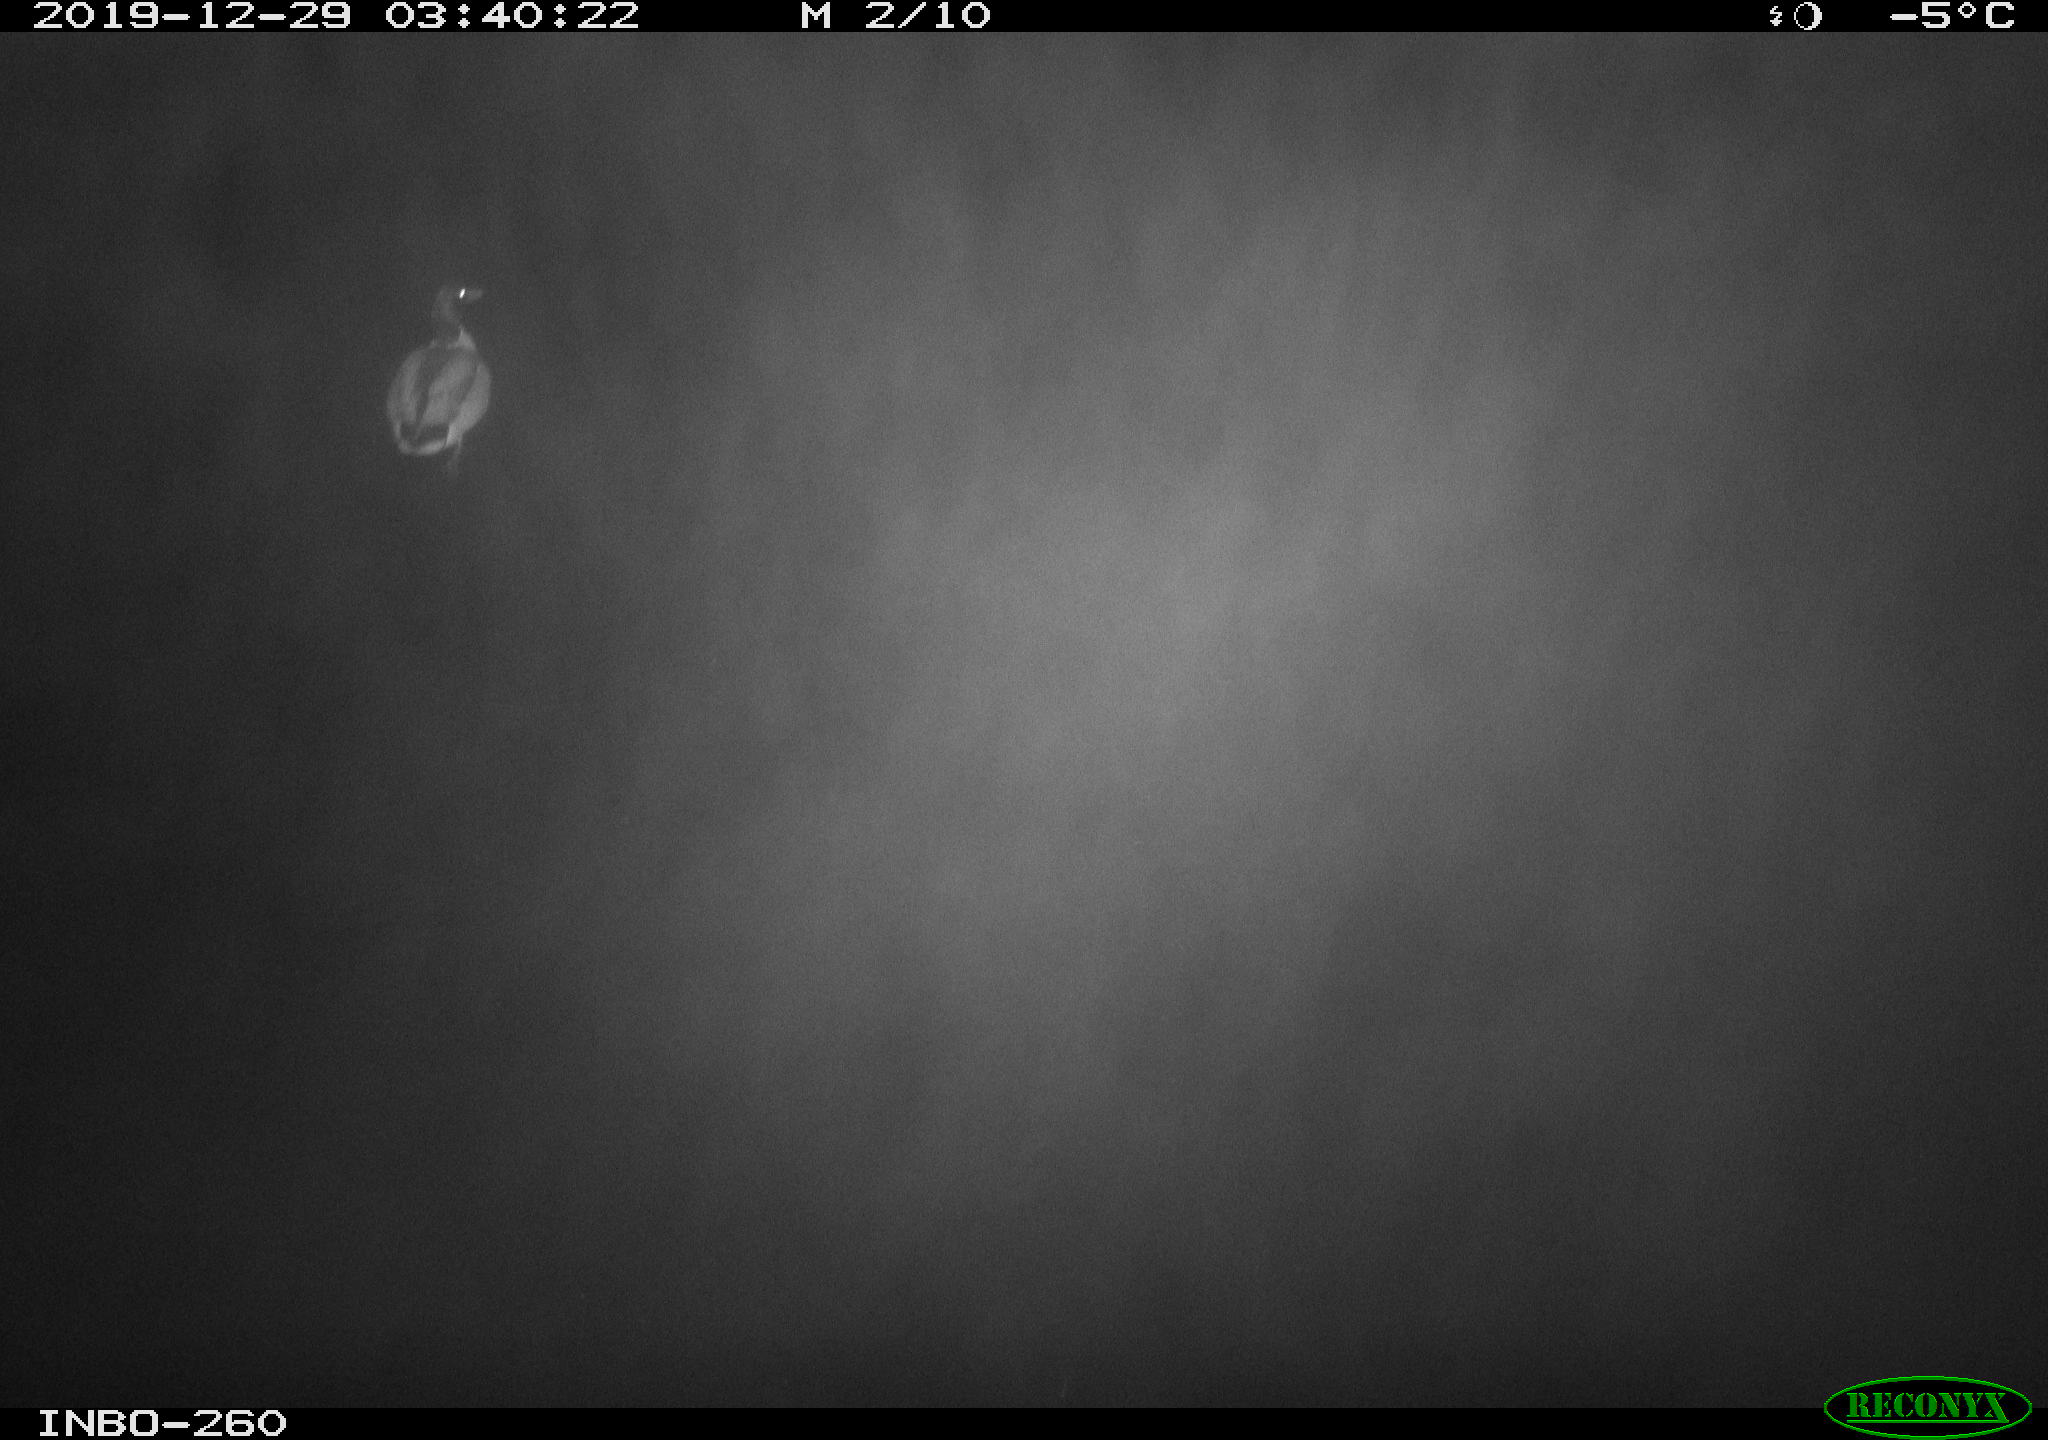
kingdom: Animalia
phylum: Chordata
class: Aves
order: Anseriformes
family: Anatidae
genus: Anas
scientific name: Anas platyrhynchos
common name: Mallard
